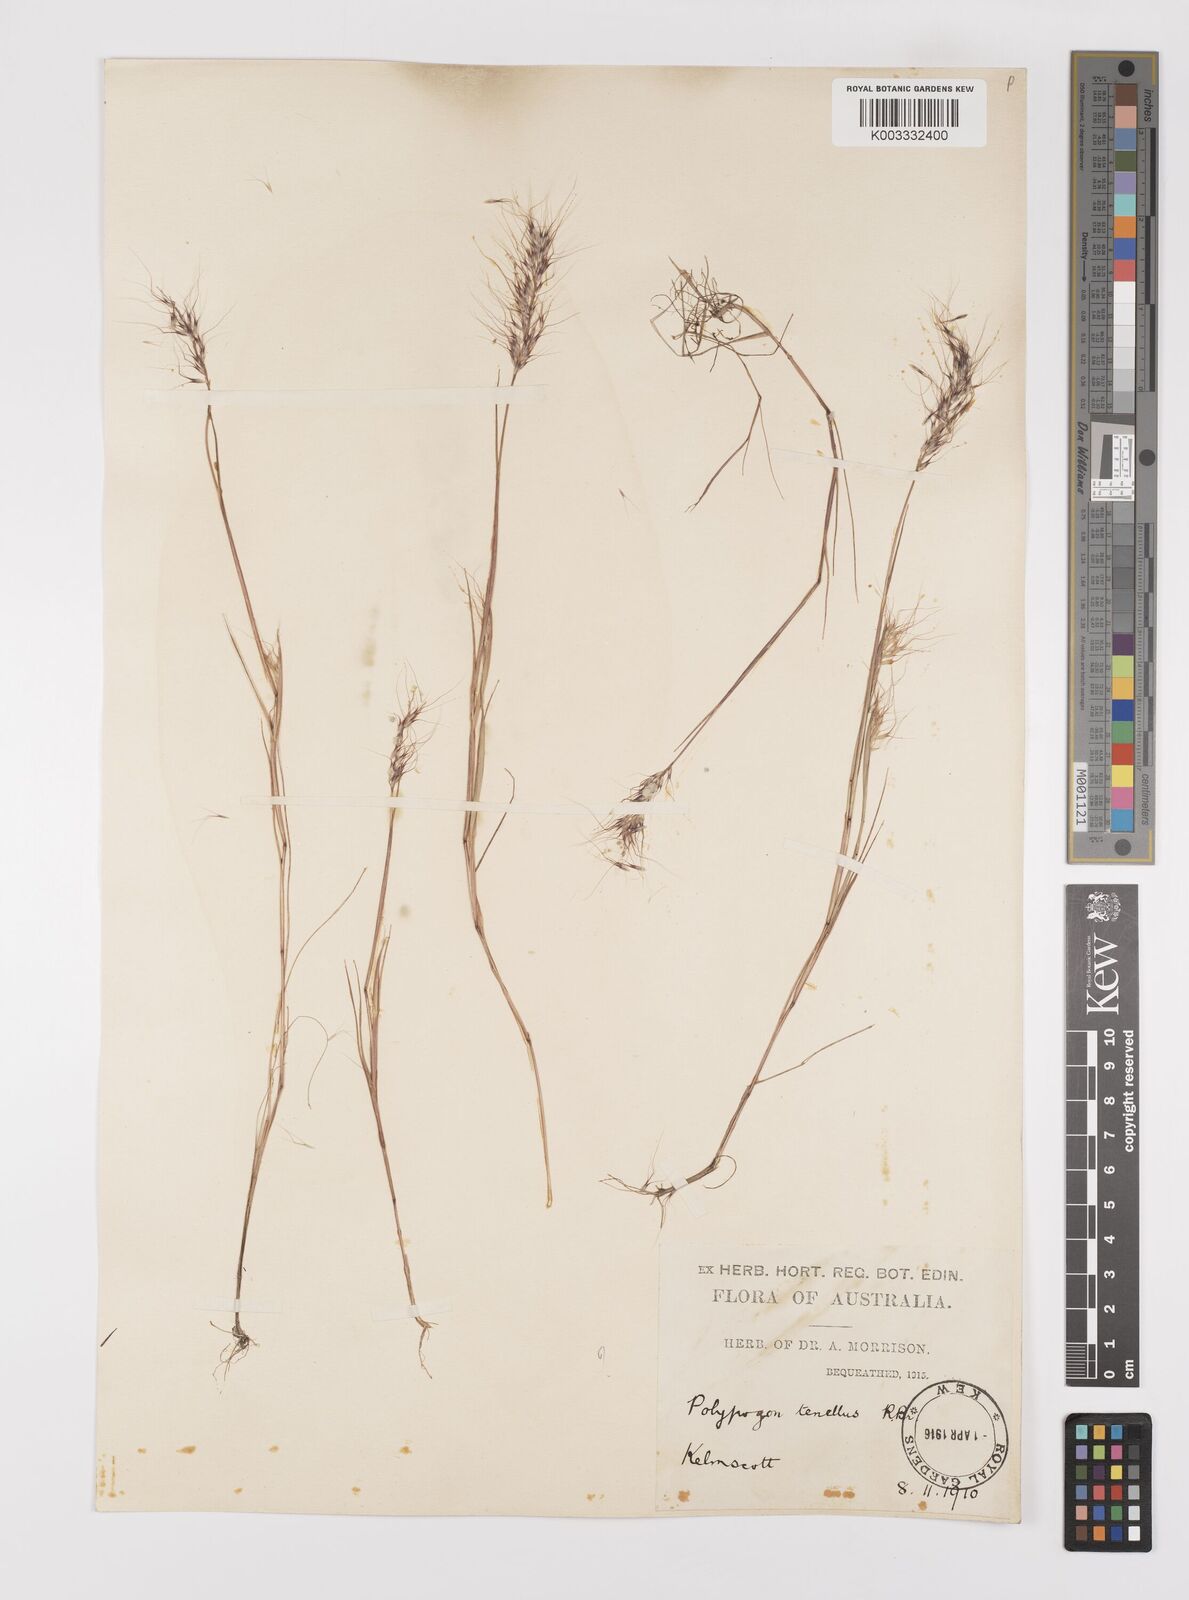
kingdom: Plantae
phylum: Tracheophyta
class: Liliopsida
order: Poales
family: Poaceae
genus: Polypogon
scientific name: Polypogon tenellus
